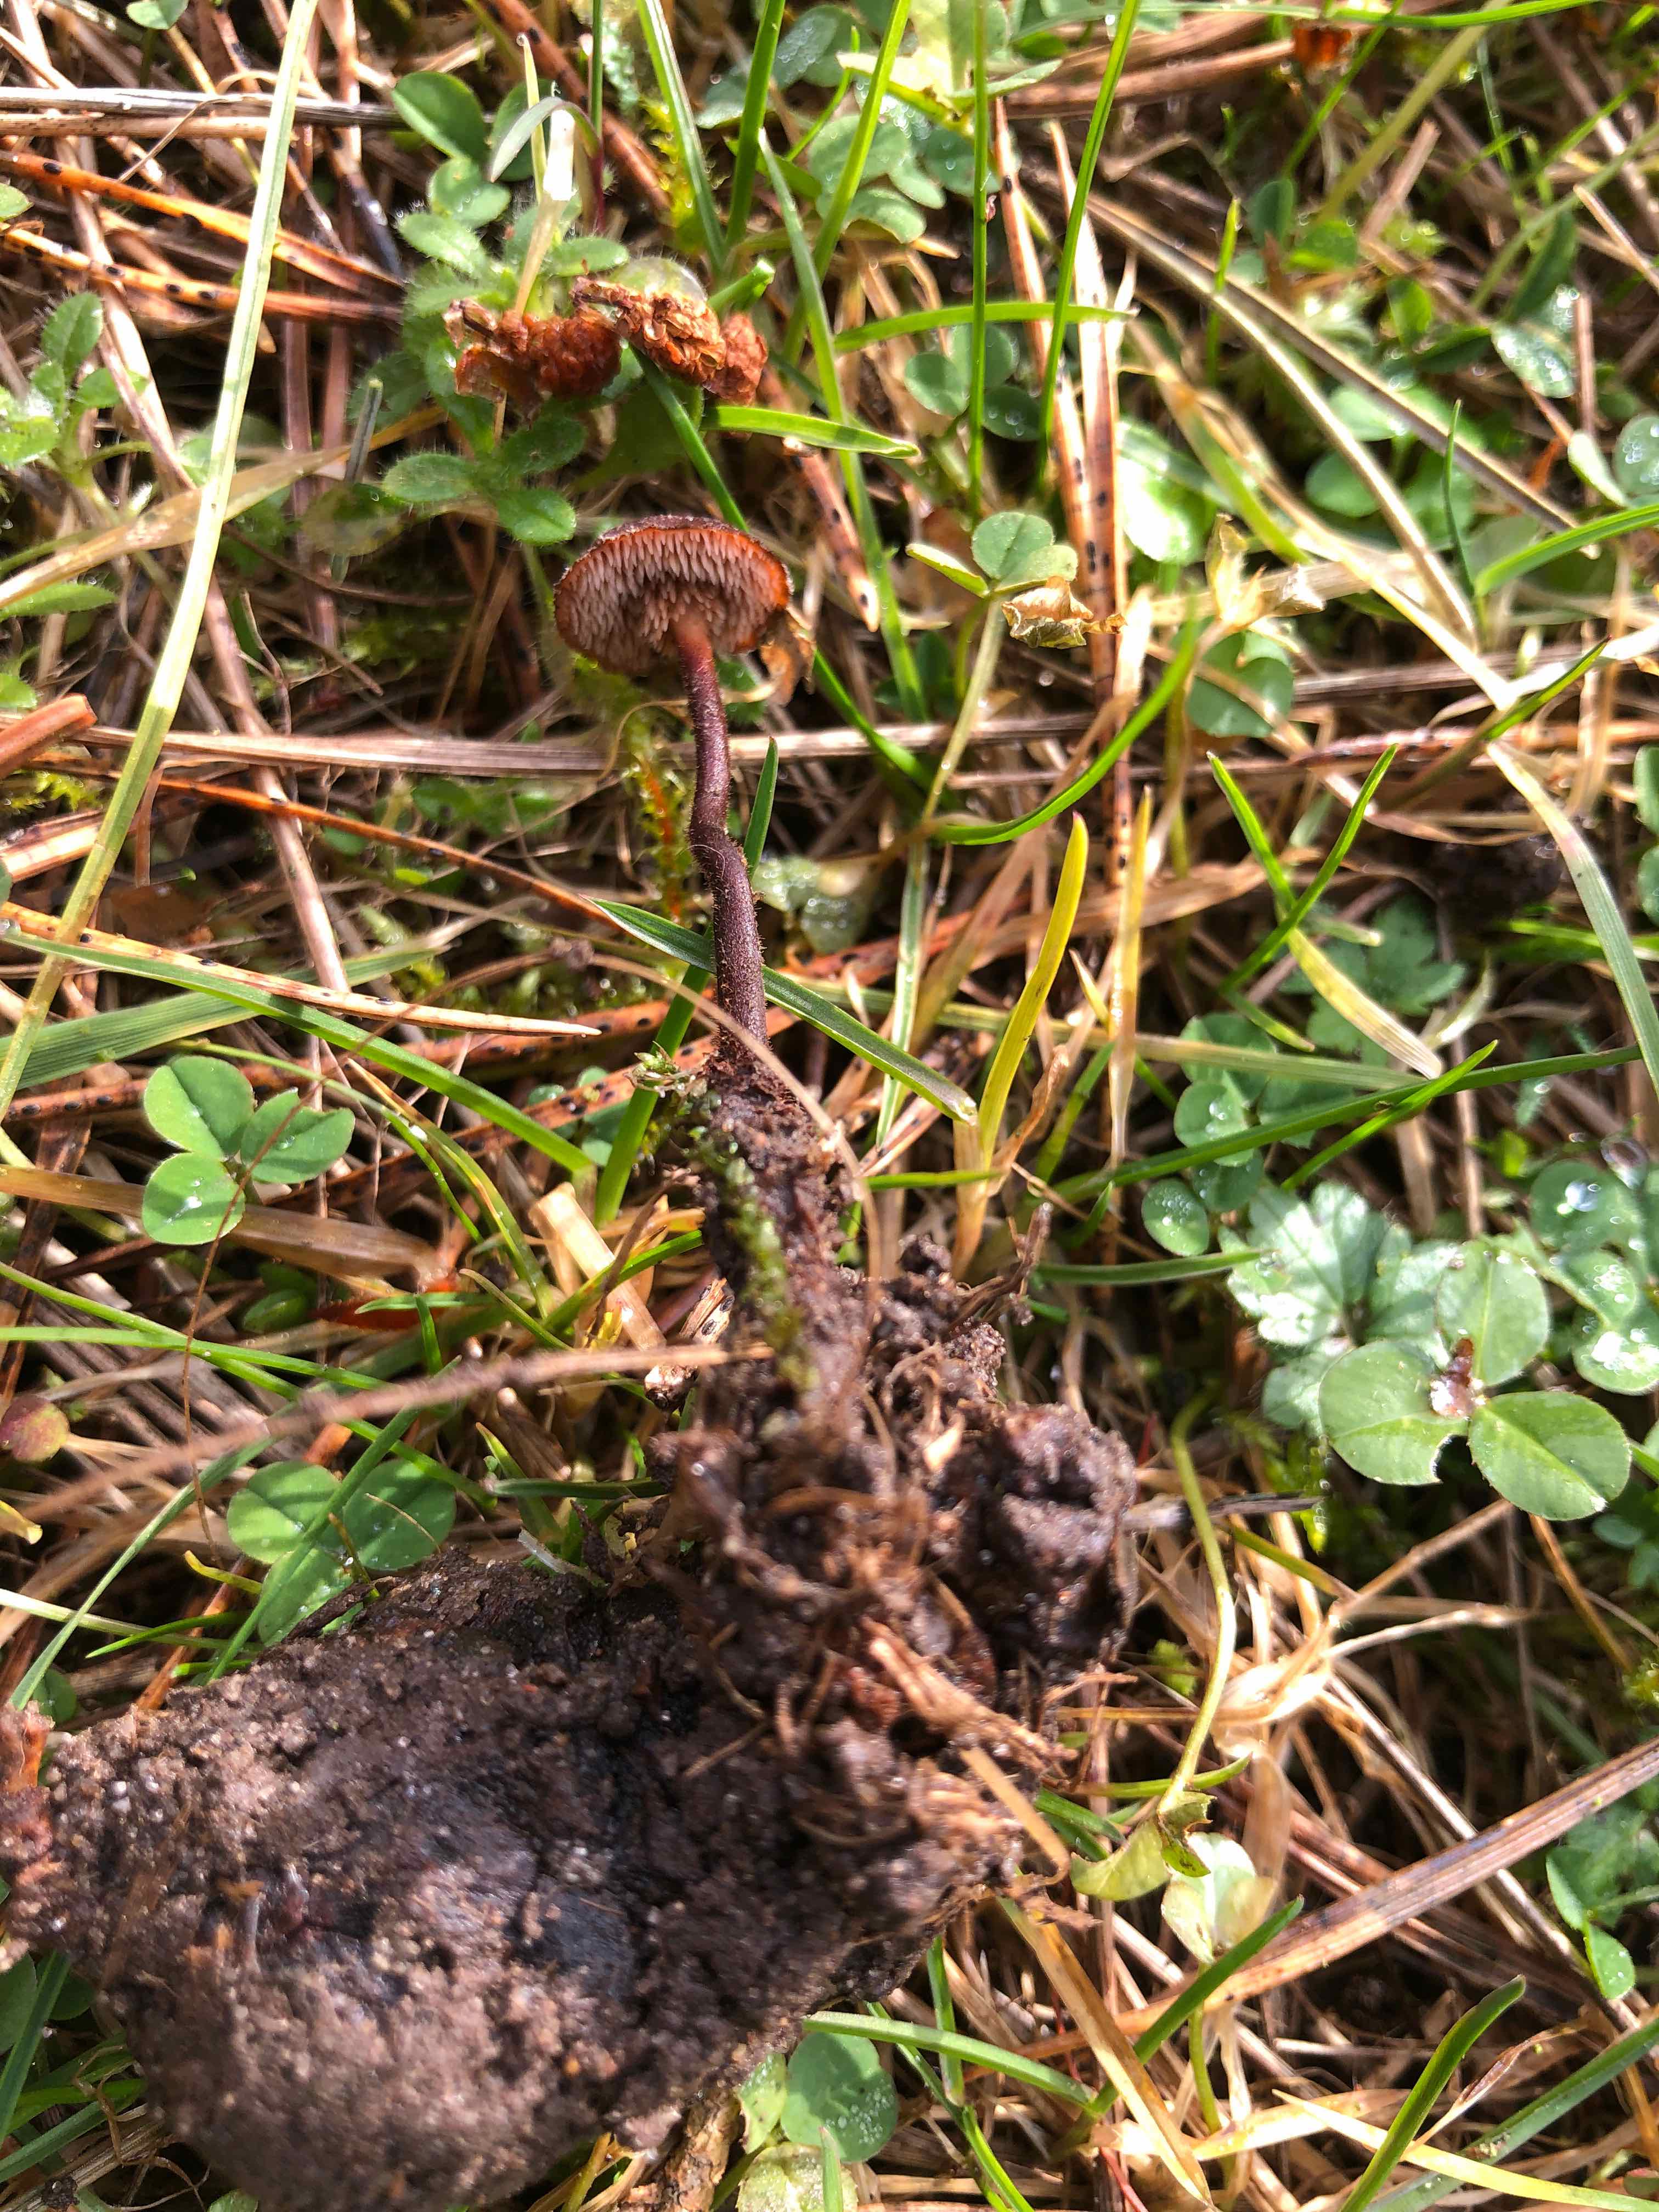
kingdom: Fungi
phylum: Basidiomycota
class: Agaricomycetes
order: Russulales
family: Auriscalpiaceae
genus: Auriscalpium
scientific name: Auriscalpium vulgare
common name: koglepigsvamp
